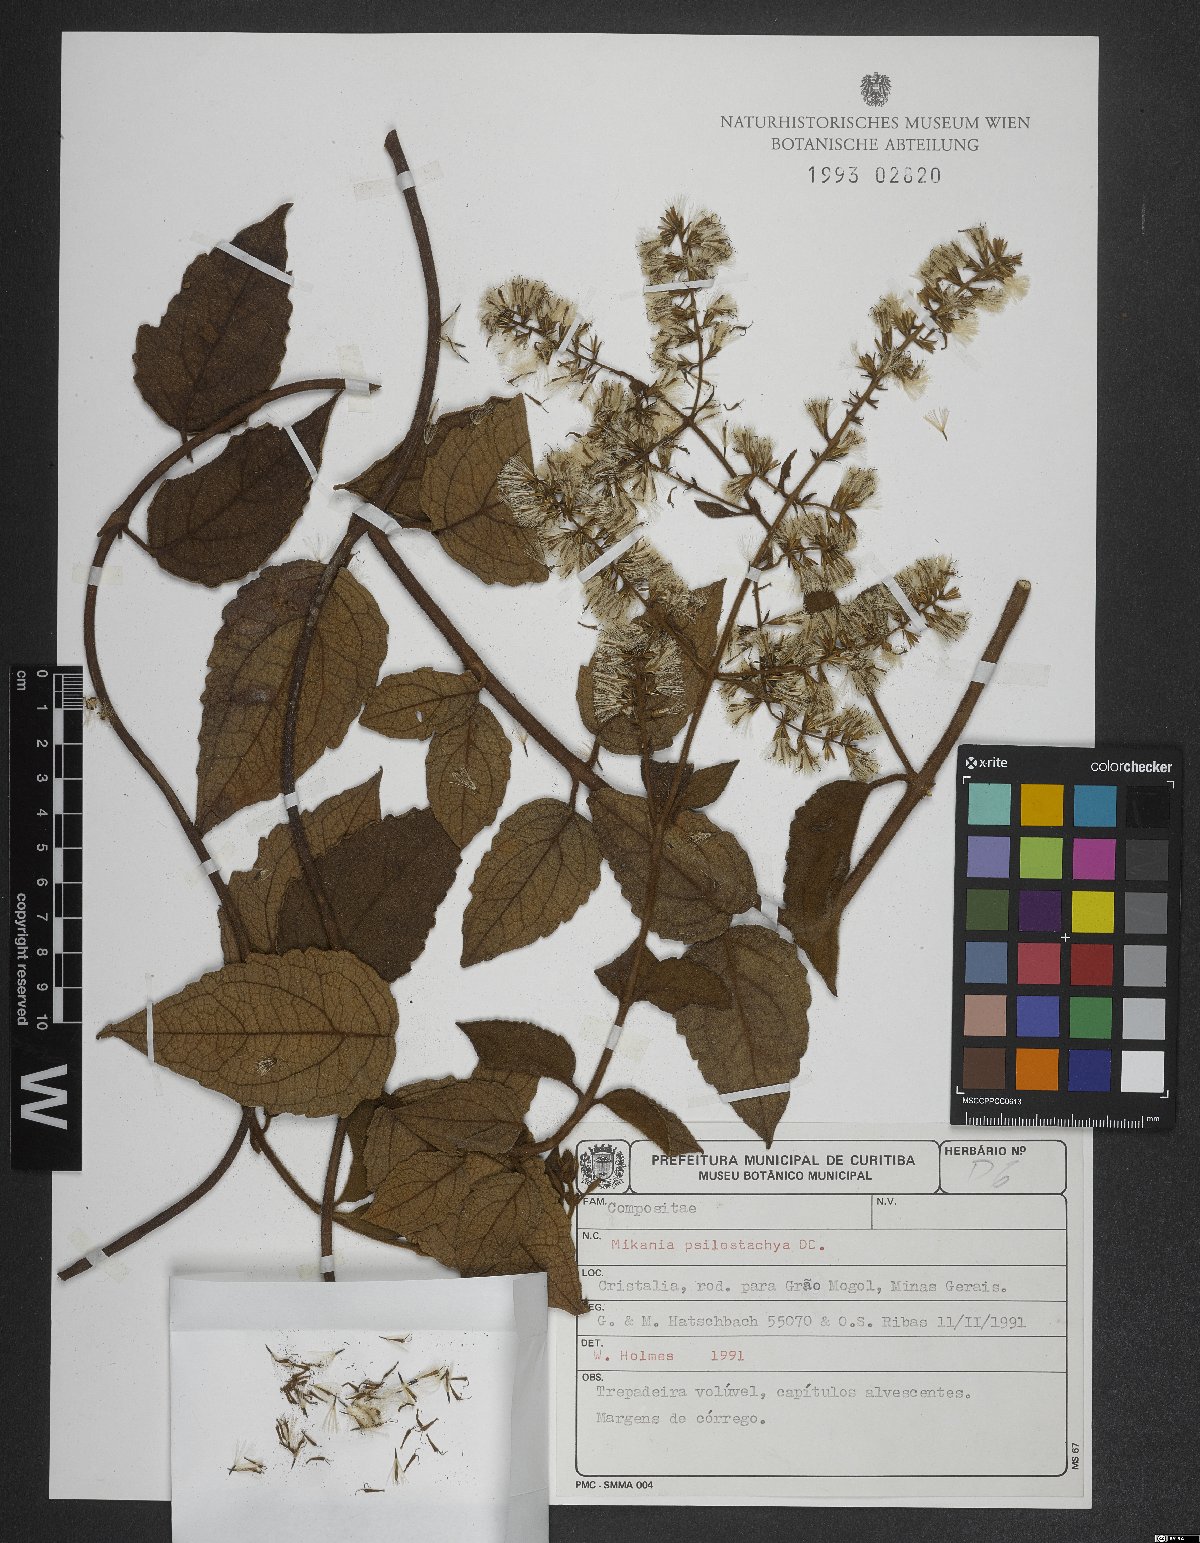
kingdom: Plantae
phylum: Tracheophyta
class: Magnoliopsida
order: Asterales
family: Asteraceae
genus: Mikania
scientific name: Mikania psilostachya
